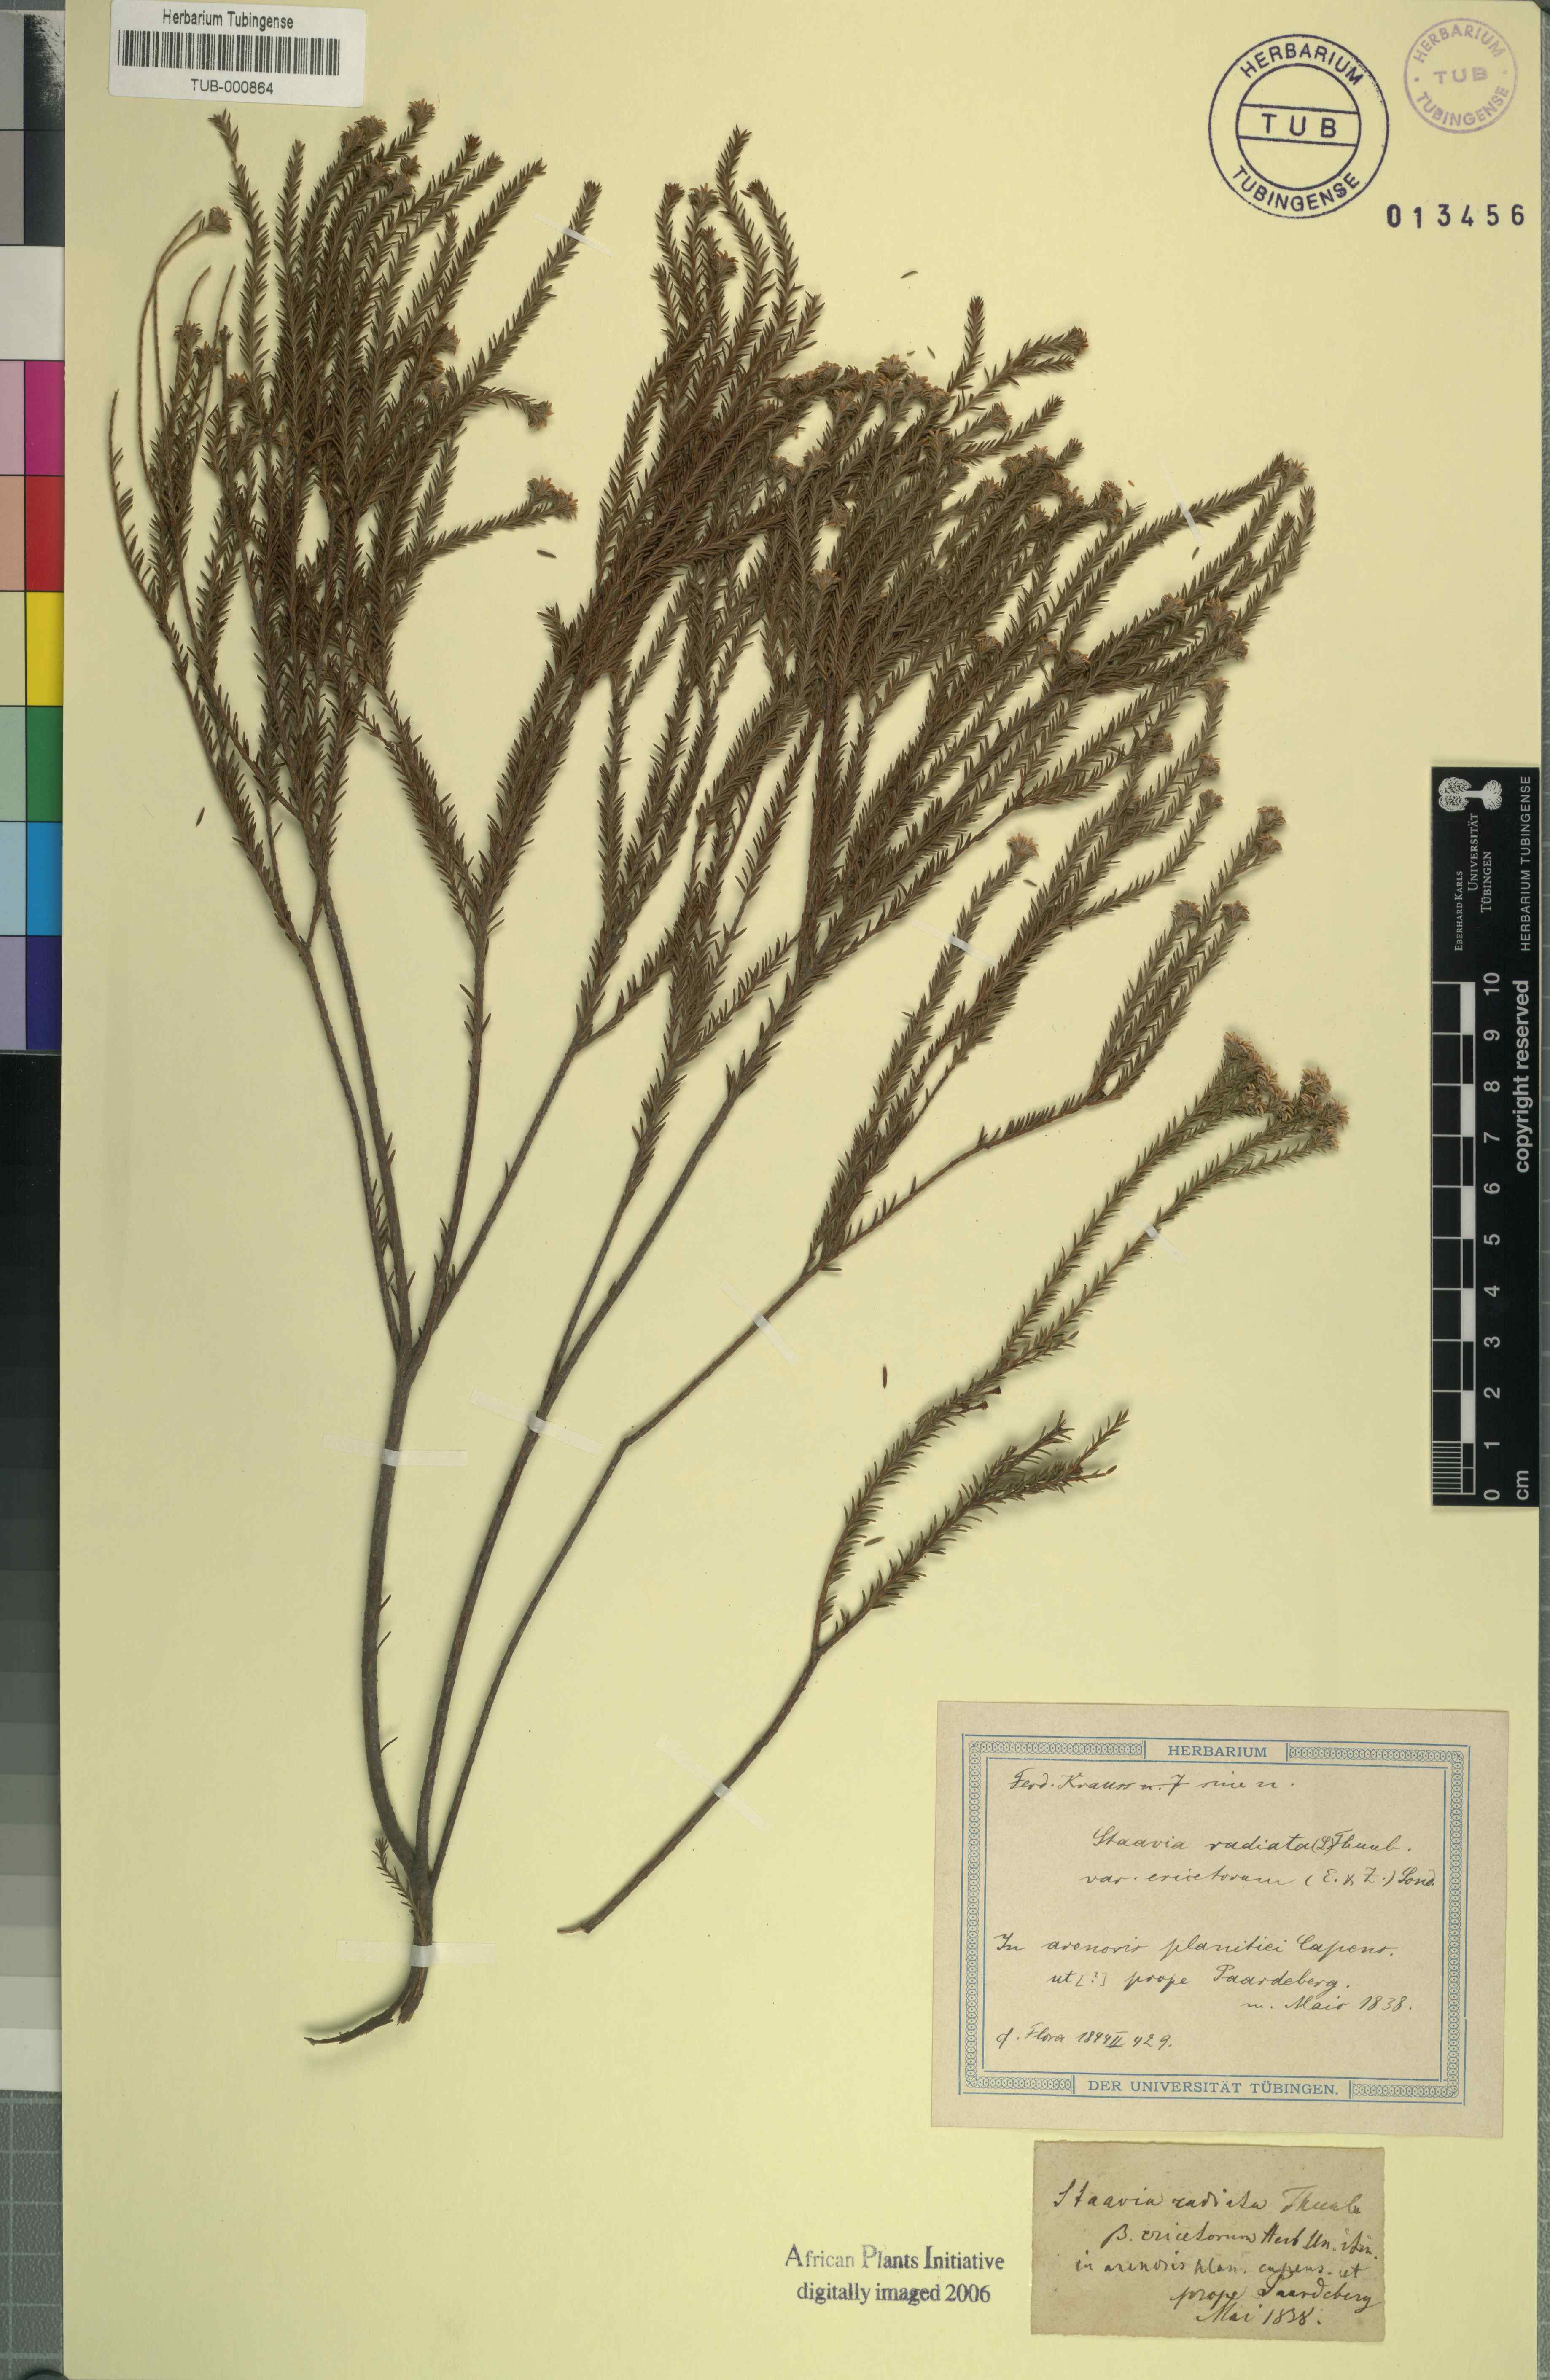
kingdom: Plantae
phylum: Tracheophyta
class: Magnoliopsida
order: Bruniales
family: Bruniaceae
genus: Staavia
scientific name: Staavia radiata
